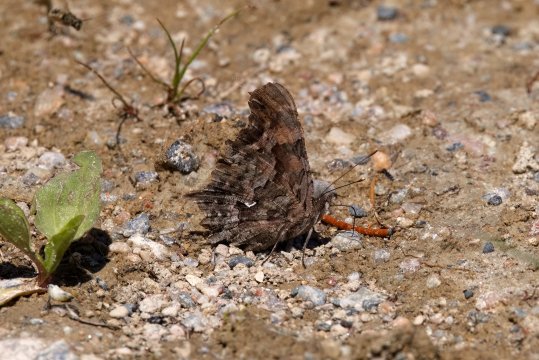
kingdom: Animalia
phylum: Arthropoda
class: Insecta
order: Lepidoptera
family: Nymphalidae
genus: Polygonia
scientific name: Polygonia faunus
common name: Green Comma
